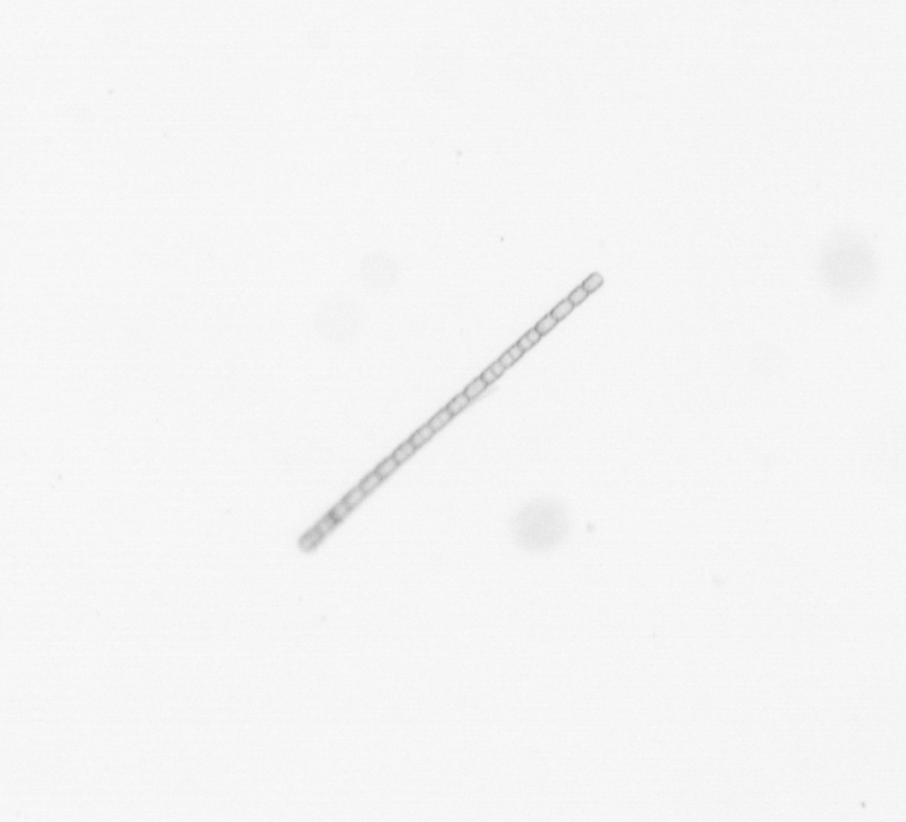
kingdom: Chromista
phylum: Ochrophyta
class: Bacillariophyceae
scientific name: Bacillariophyceae
